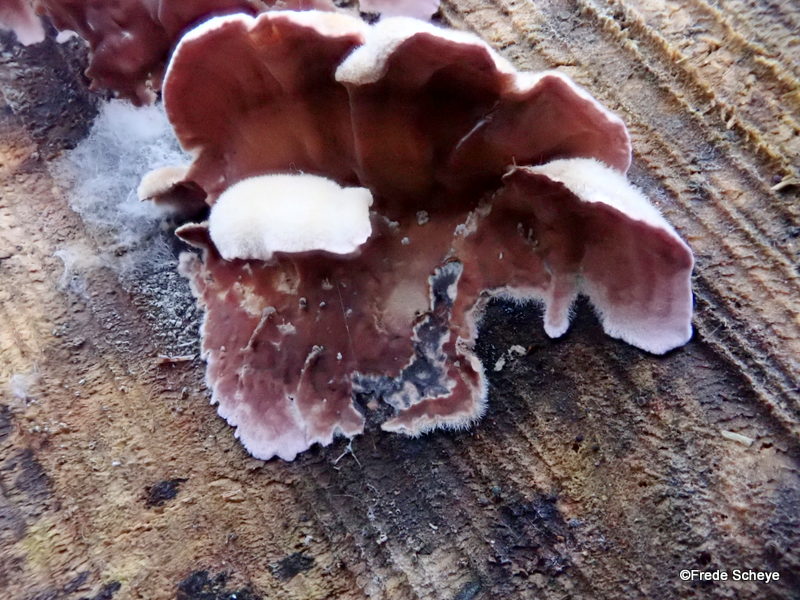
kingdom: Fungi
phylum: Basidiomycota
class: Agaricomycetes
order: Agaricales
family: Cyphellaceae
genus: Chondrostereum
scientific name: Chondrostereum purpureum
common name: purpurlædersvamp
